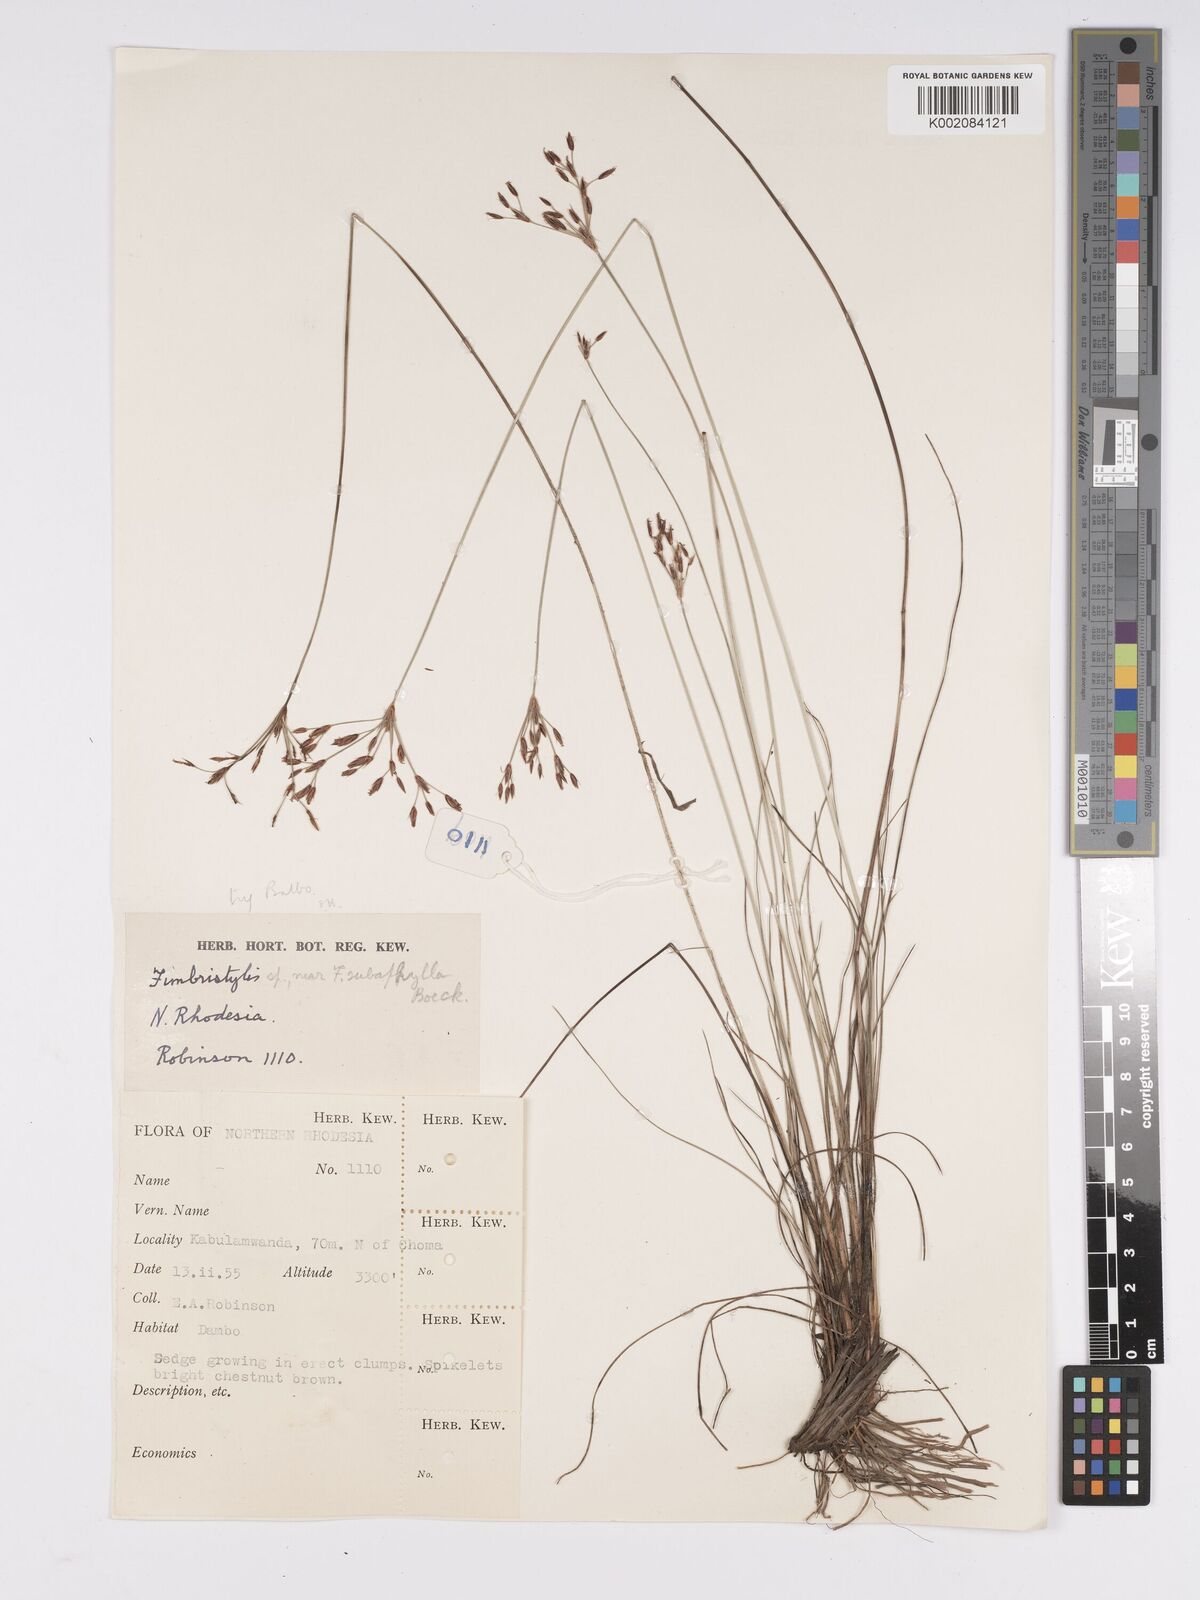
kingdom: Plantae
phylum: Tracheophyta
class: Liliopsida
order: Poales
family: Cyperaceae
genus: Bulbostylis
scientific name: Bulbostylis
